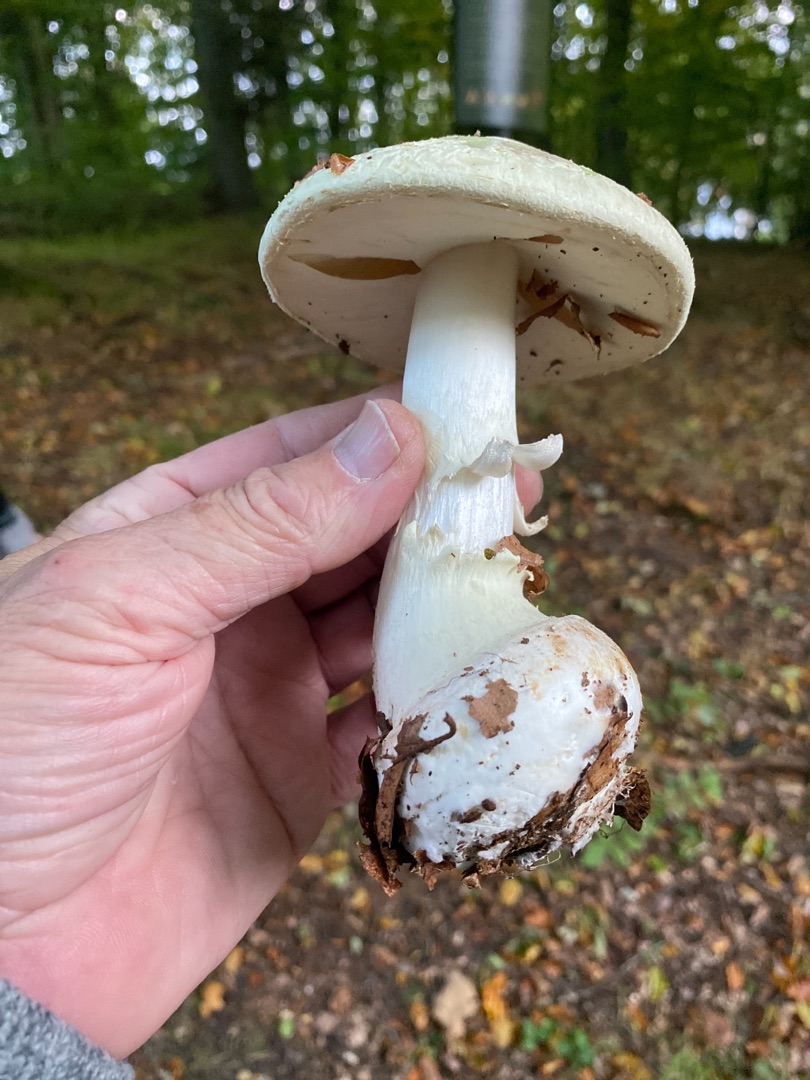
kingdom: Fungi
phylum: Basidiomycota
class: Agaricomycetes
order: Agaricales
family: Amanitaceae
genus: Amanita
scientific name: Amanita citrina
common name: Kugleknoldet fluesvamp
